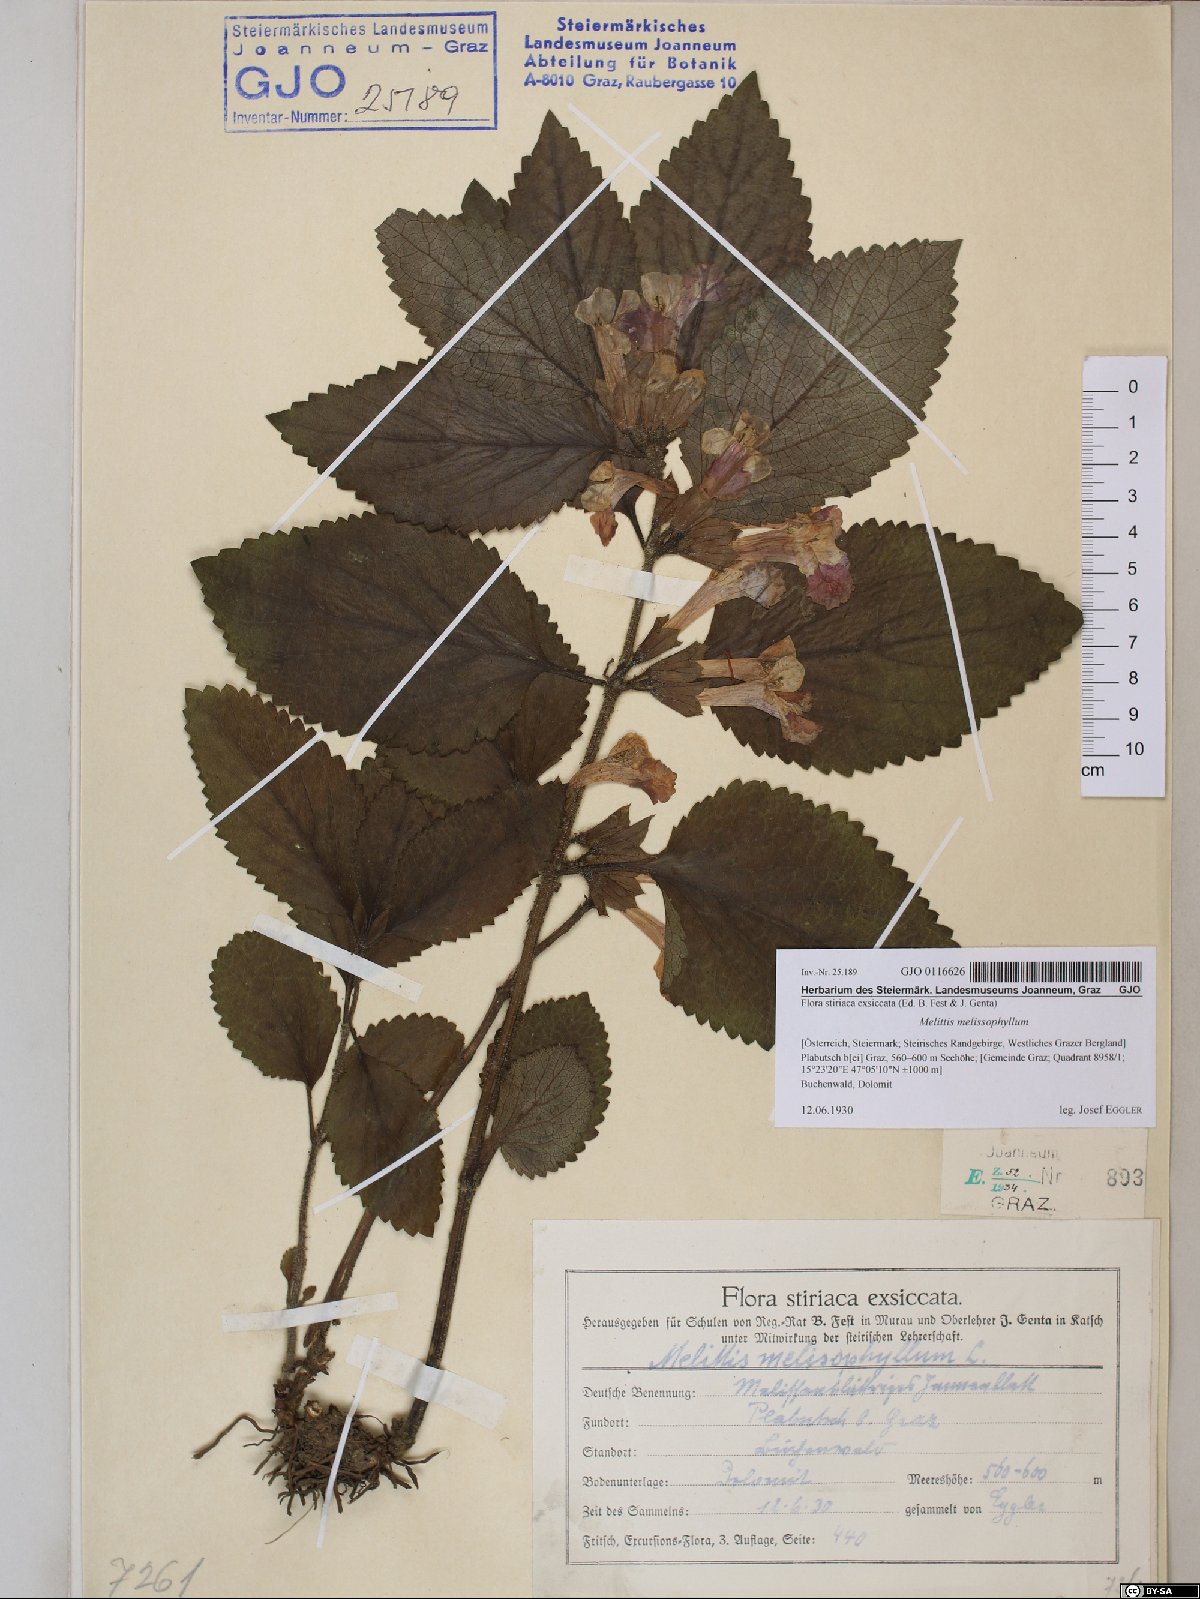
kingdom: Plantae
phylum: Tracheophyta
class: Magnoliopsida
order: Lamiales
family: Lamiaceae
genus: Melittis
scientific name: Melittis melissophyllum
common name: Bastard balm
